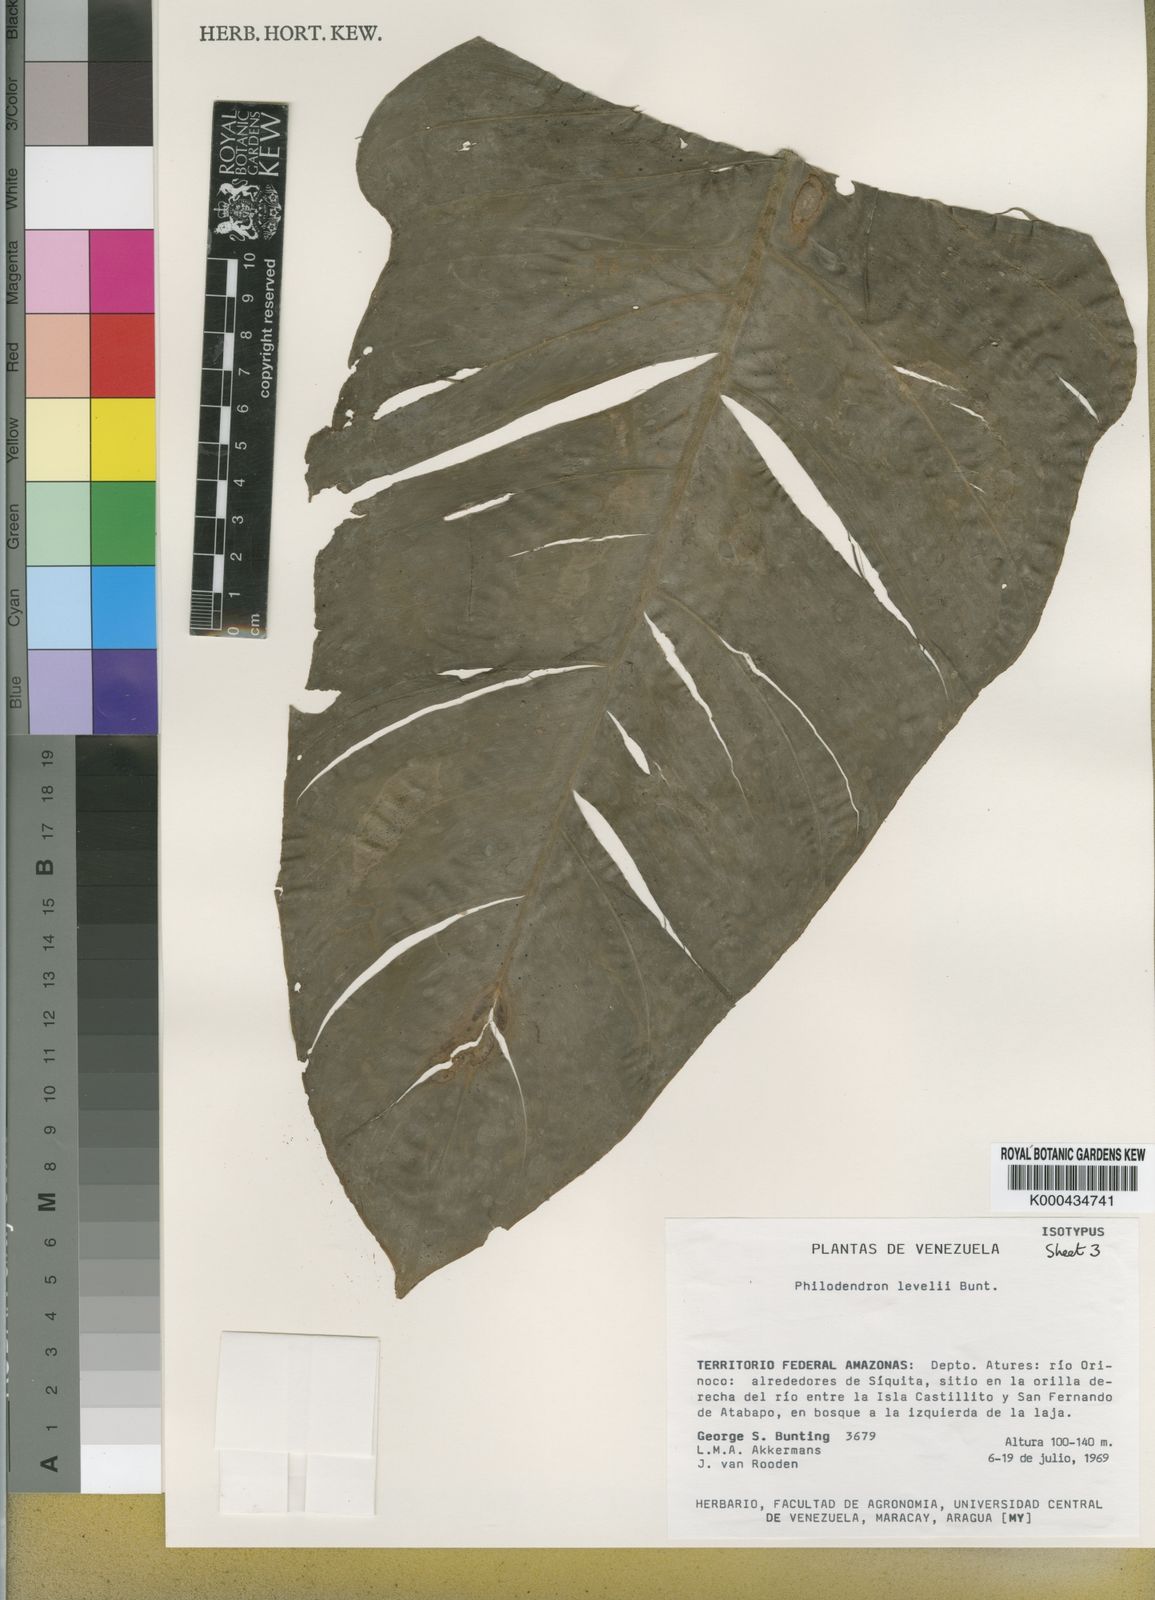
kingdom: Plantae
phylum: Tracheophyta
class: Liliopsida
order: Alismatales
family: Araceae
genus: Philodendron
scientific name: Philodendron barrosoanum
